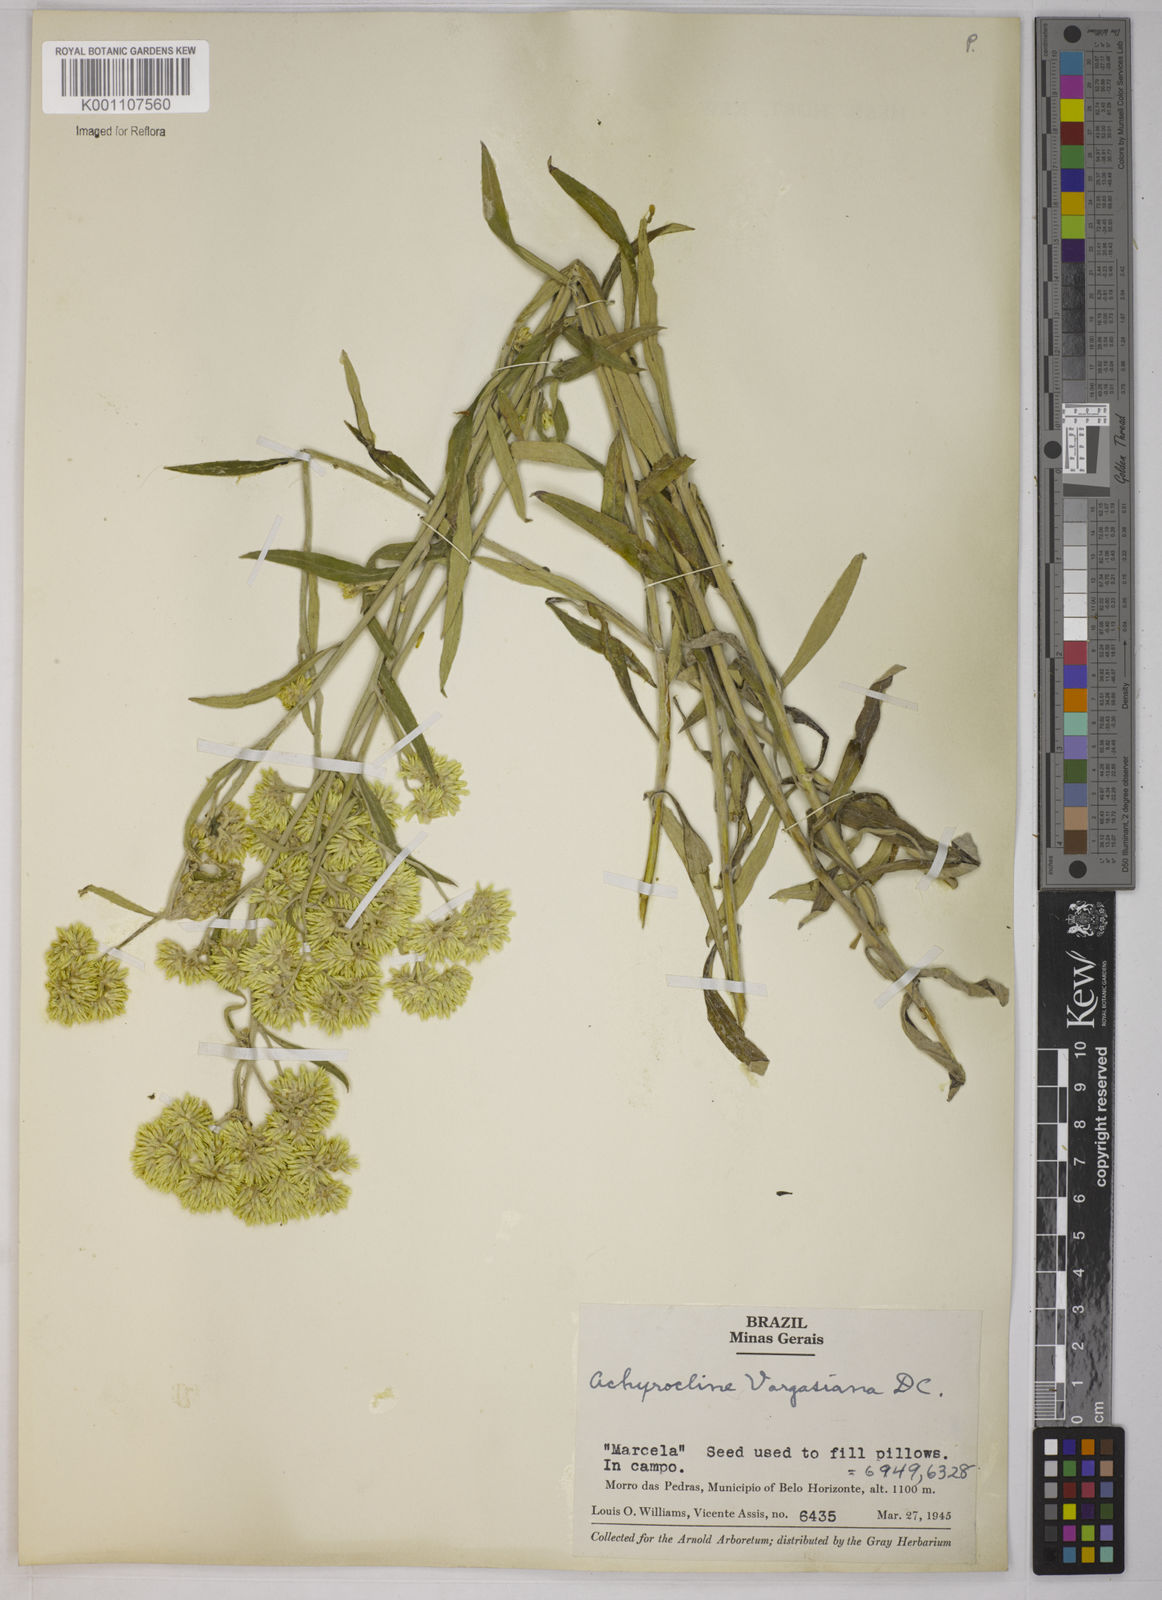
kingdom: Plantae
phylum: Tracheophyta
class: Magnoliopsida
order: Asterales
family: Asteraceae
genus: Achyrocline
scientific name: Achyrocline vargasiana
